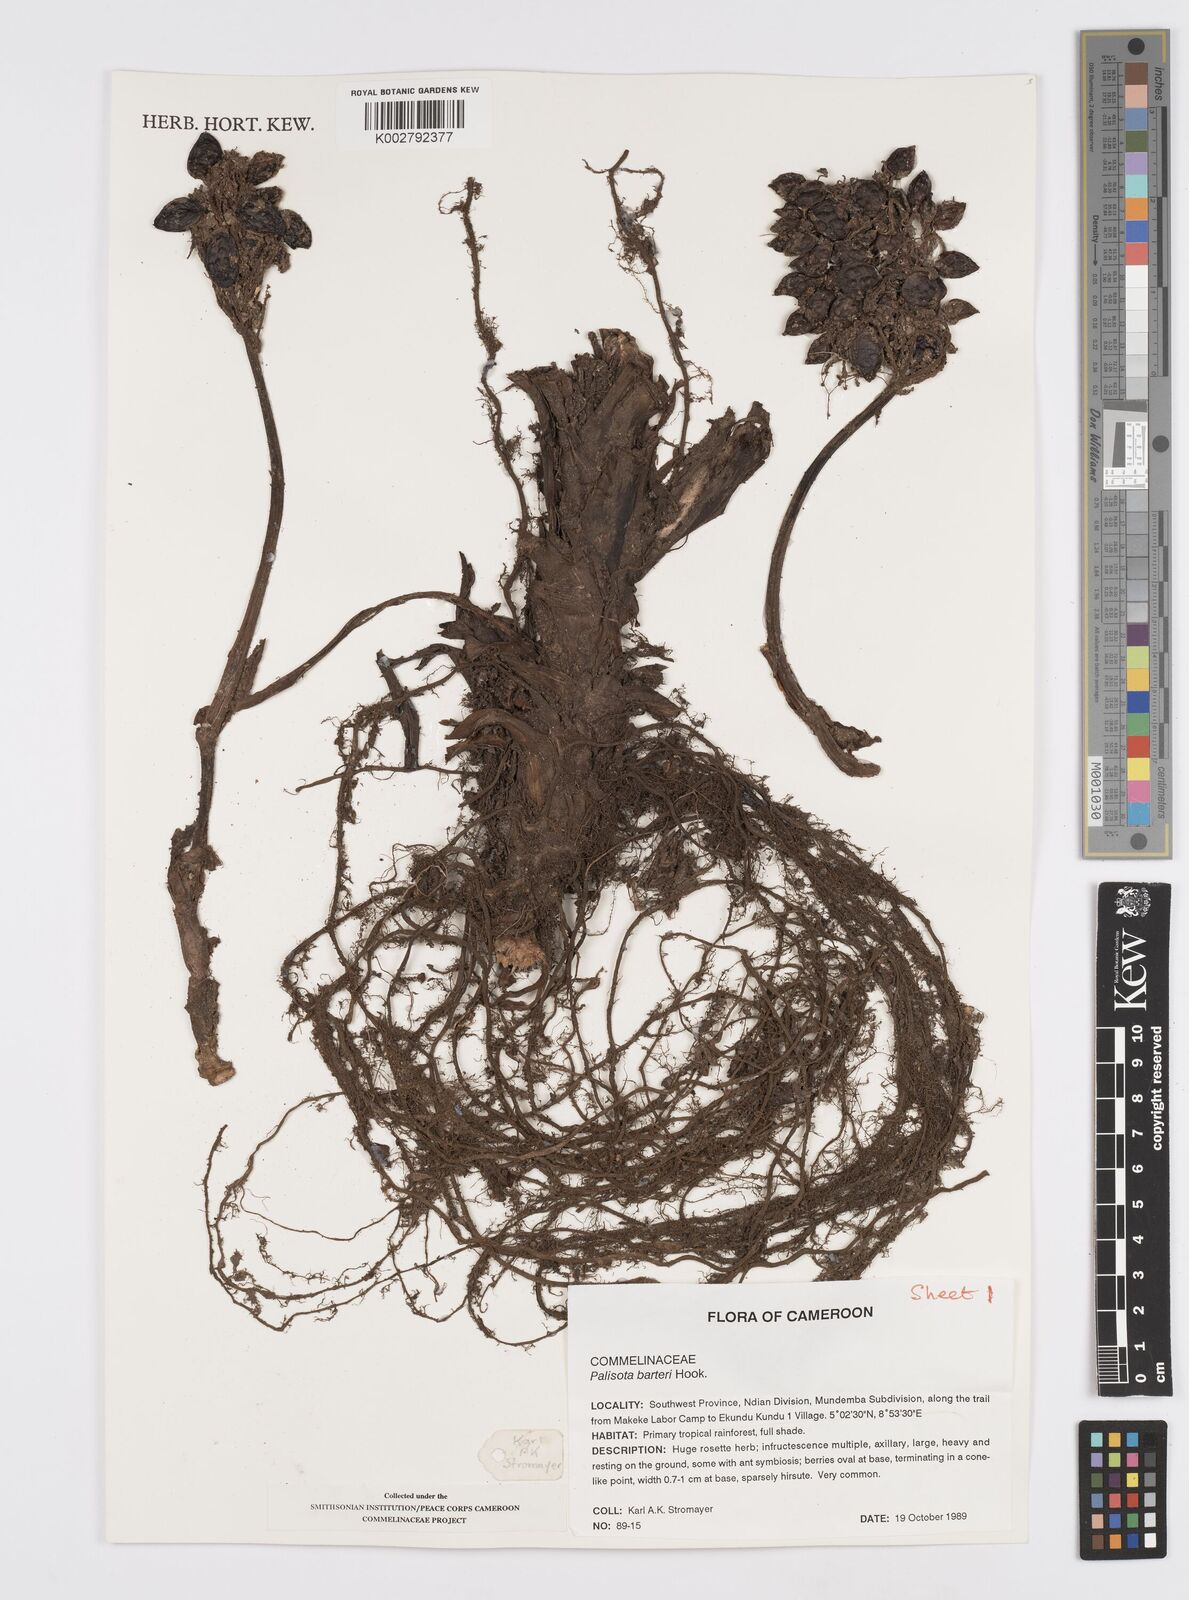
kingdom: Plantae
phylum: Tracheophyta
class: Liliopsida
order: Commelinales
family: Commelinaceae
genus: Palisota
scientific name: Palisota barteri
